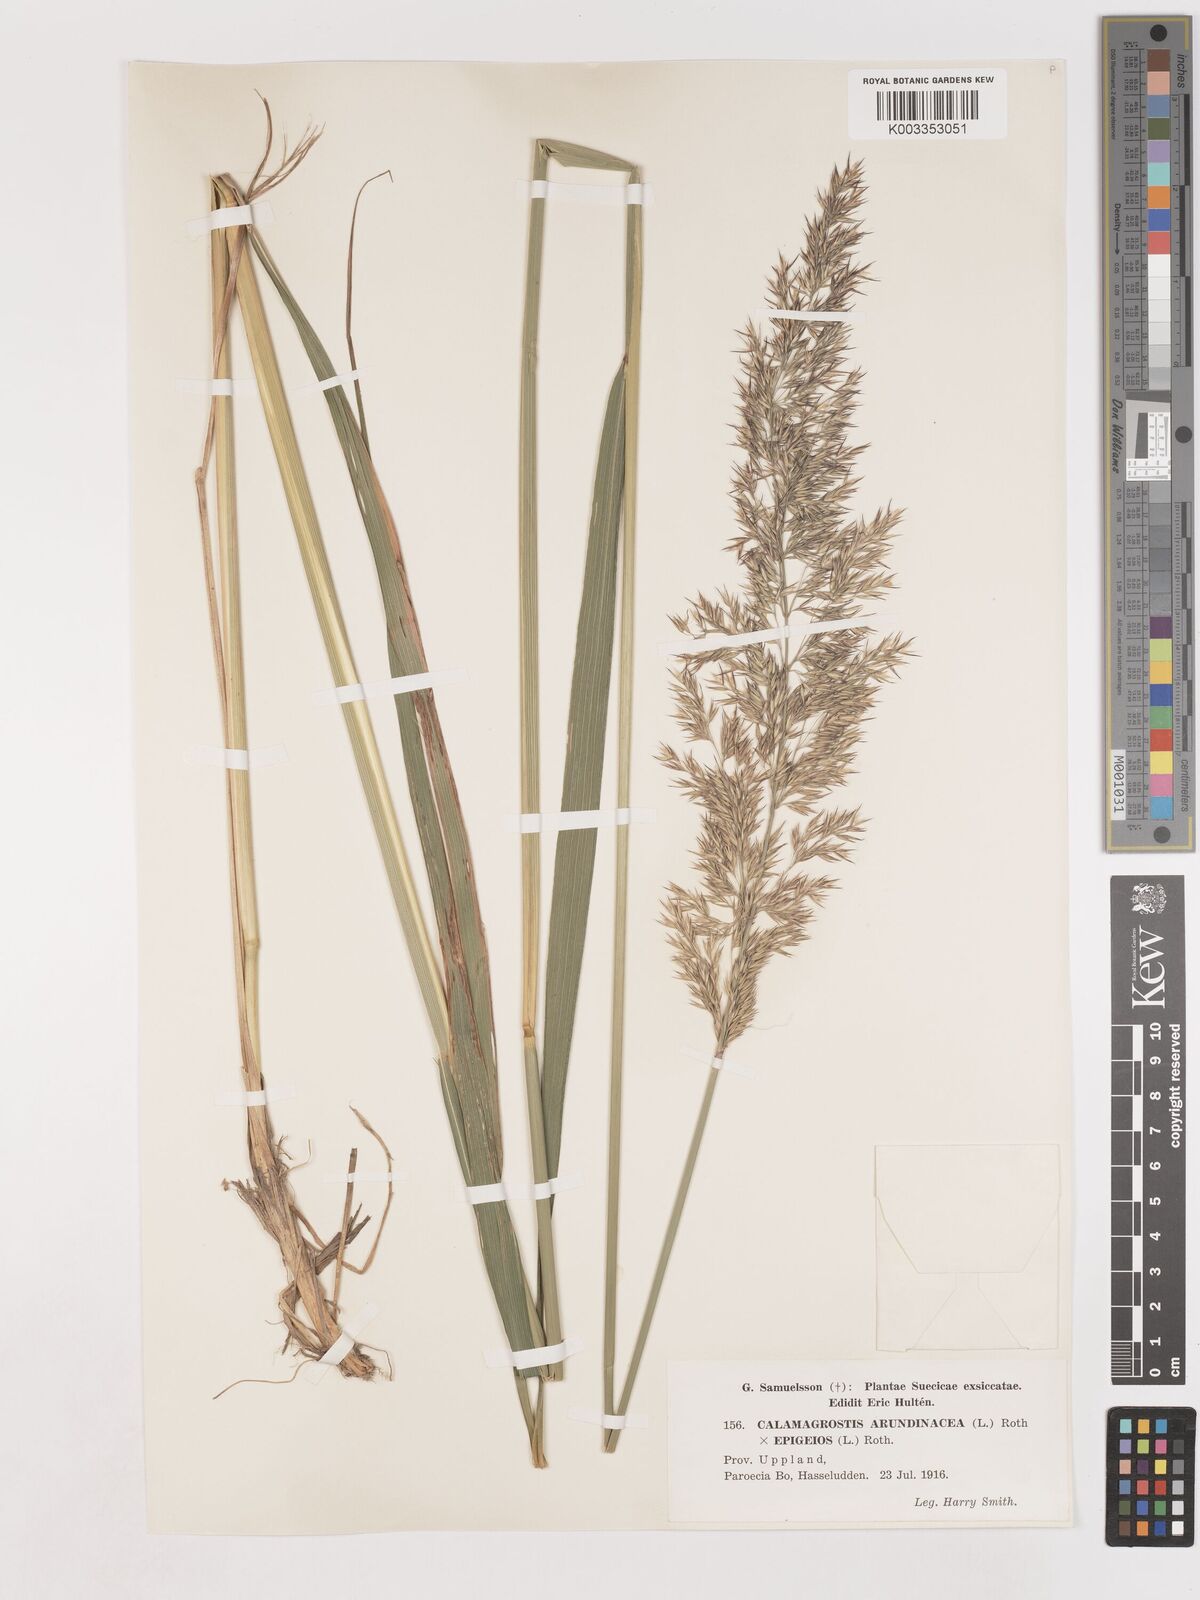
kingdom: Plantae
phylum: Tracheophyta
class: Liliopsida
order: Poales
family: Poaceae
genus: Calamagrostis
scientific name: Calamagrostis epigejos
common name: Wood small-reed
